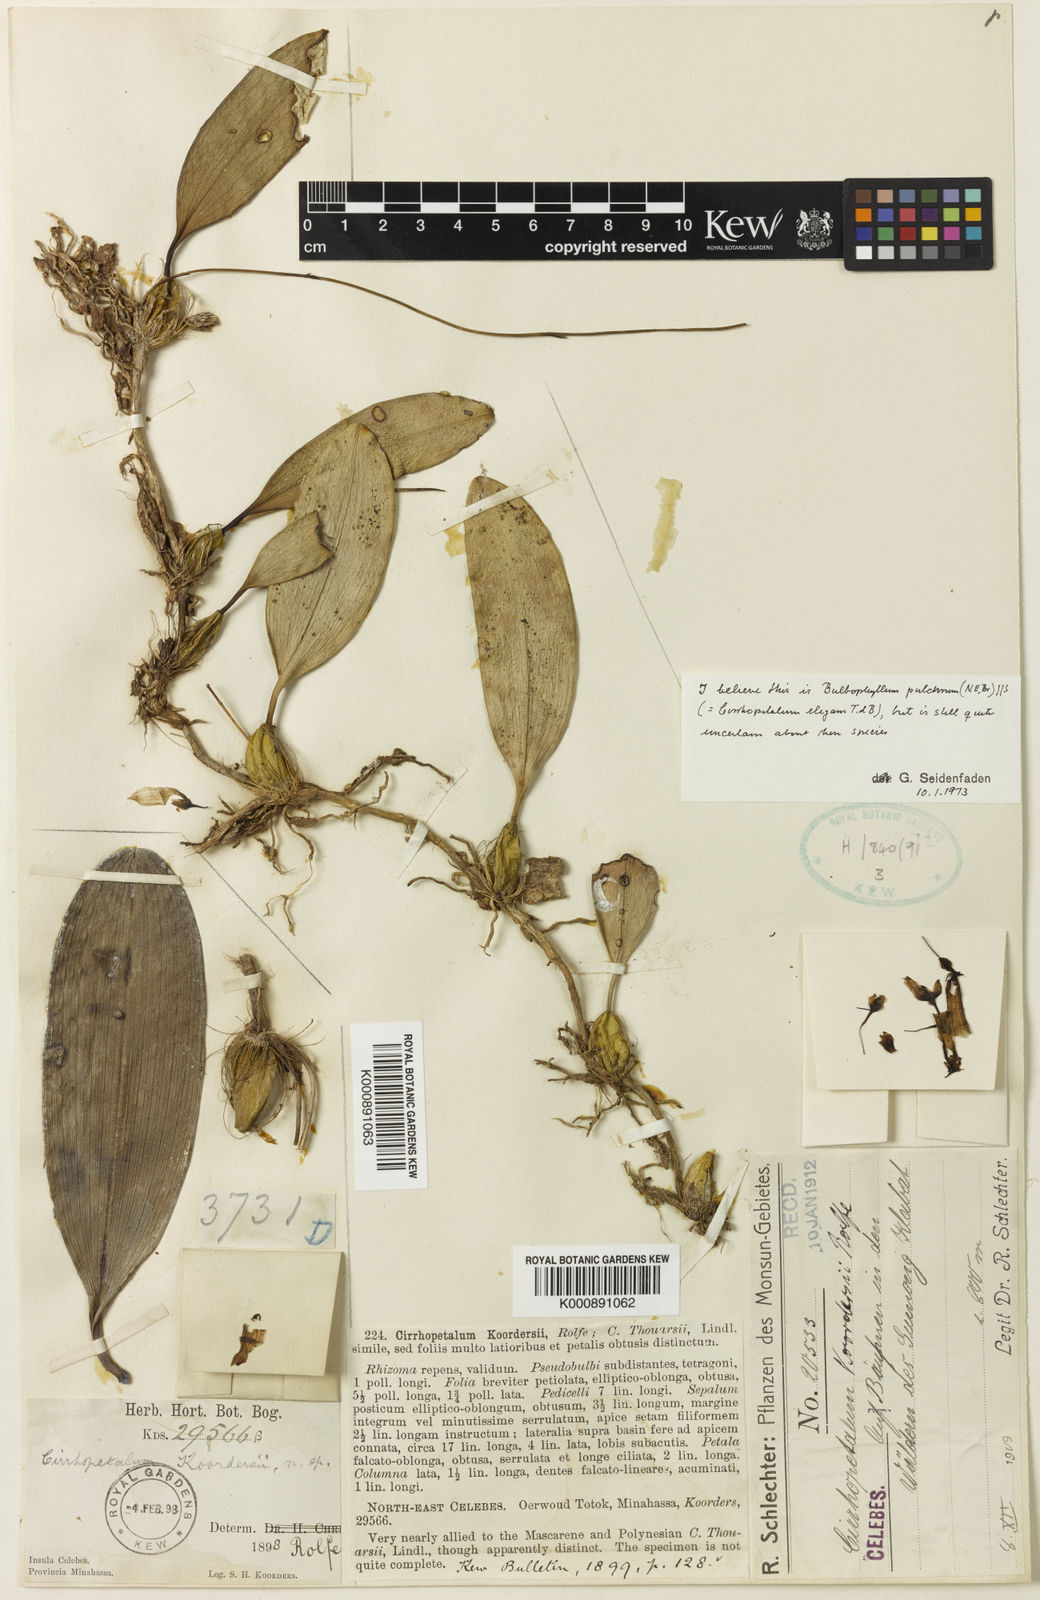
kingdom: Plantae
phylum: Tracheophyta
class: Liliopsida
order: Asparagales
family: Orchidaceae
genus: Bulbophyllum
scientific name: Bulbophyllum longiflorum
